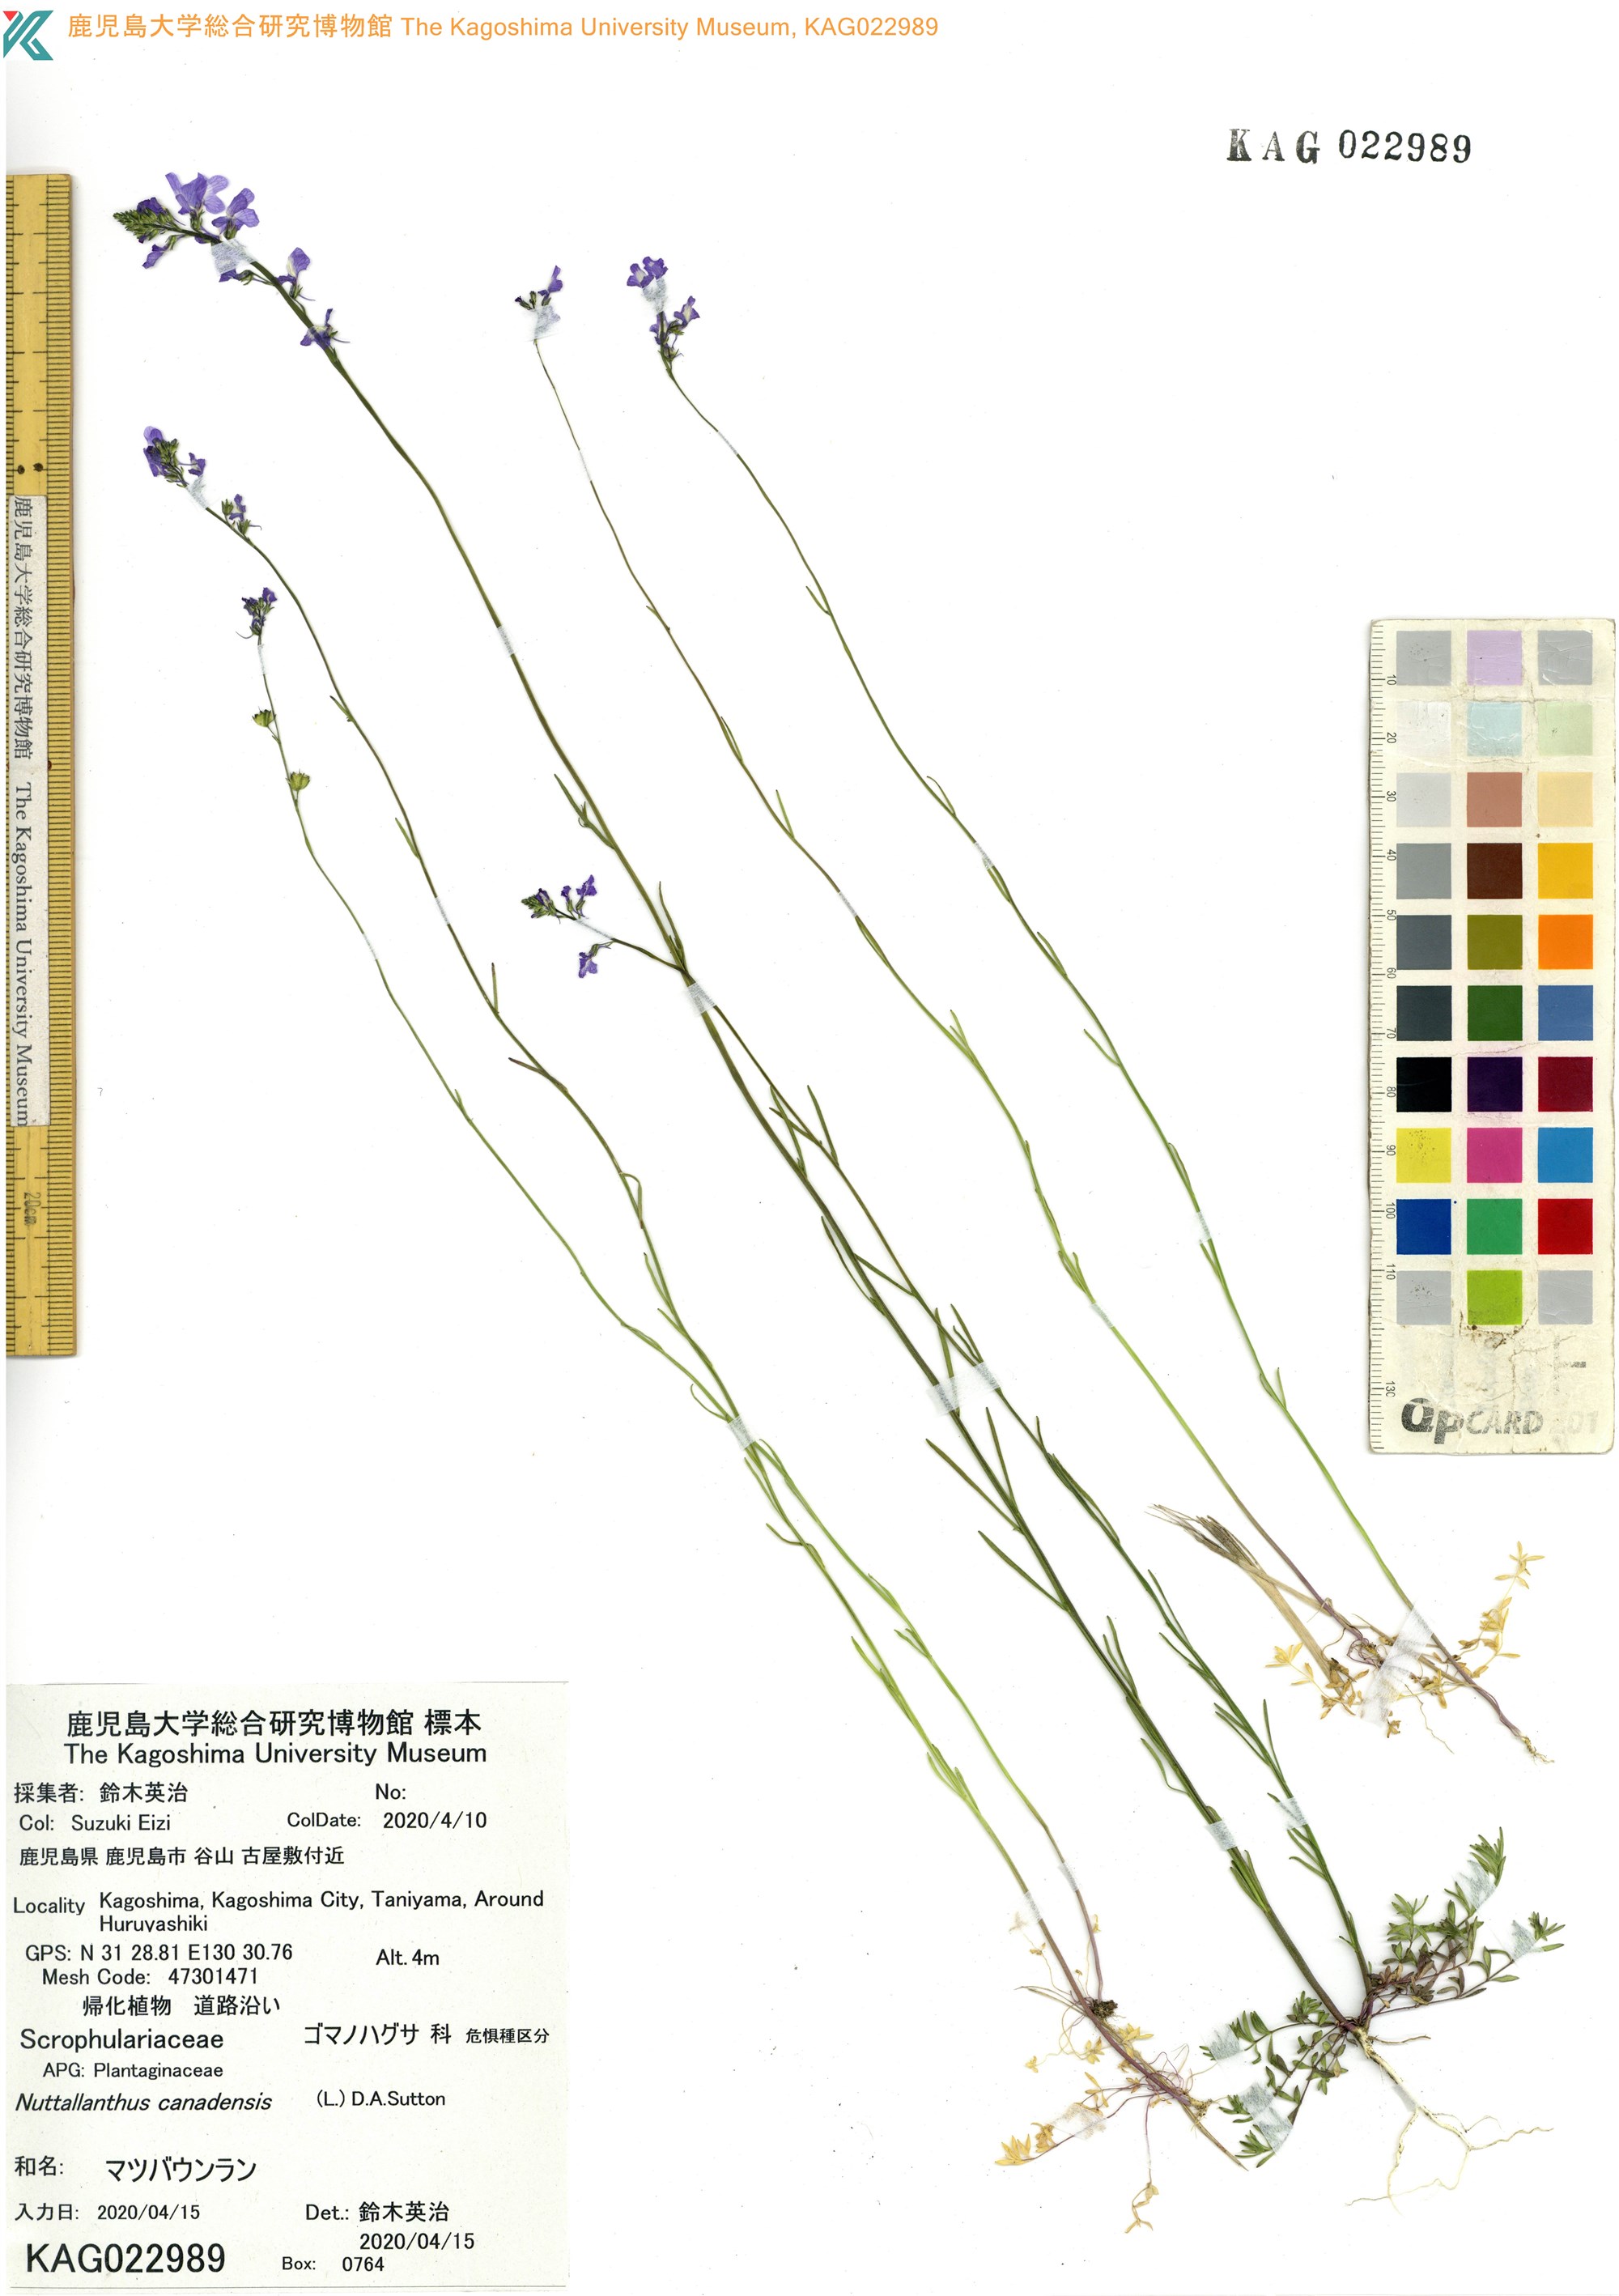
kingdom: Plantae
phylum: Tracheophyta
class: Magnoliopsida
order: Lamiales
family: Plantaginaceae
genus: Nuttallanthus
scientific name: Nuttallanthus canadensis
